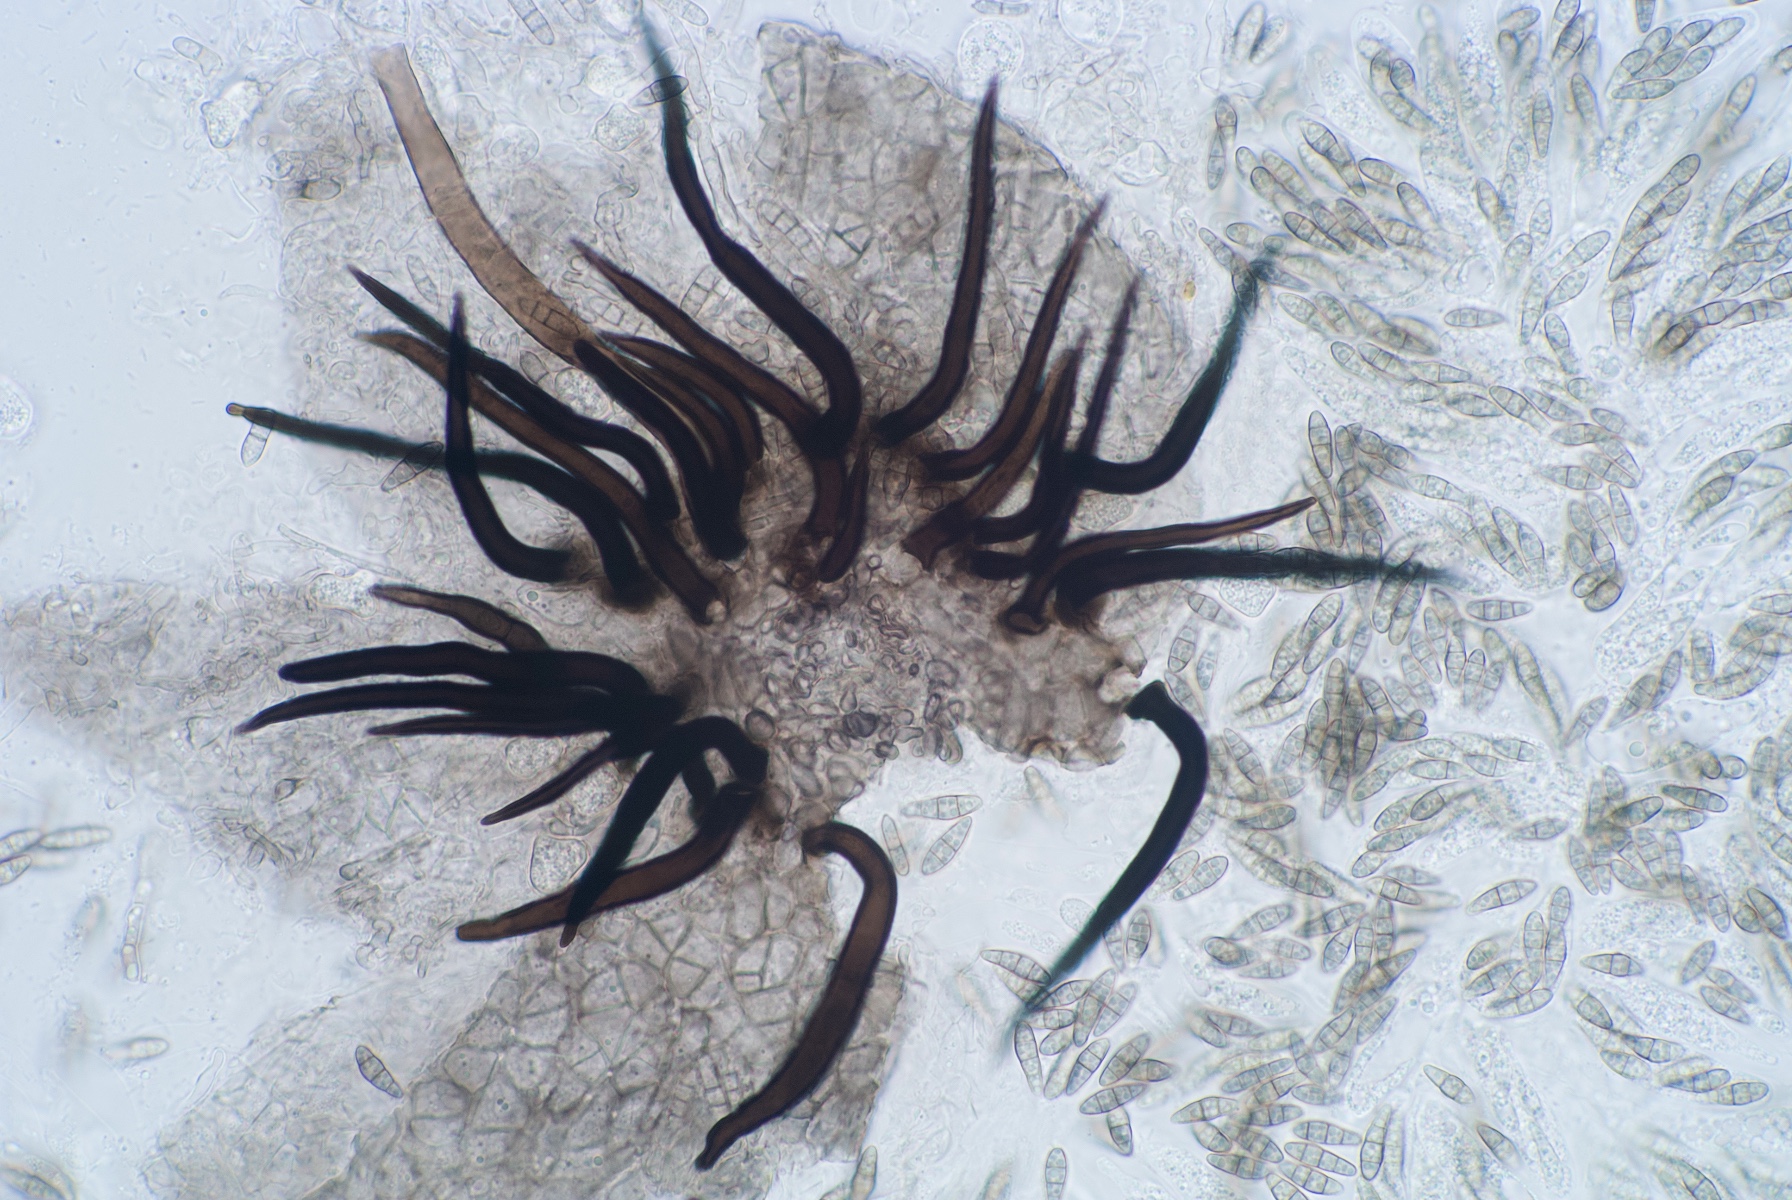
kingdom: Fungi
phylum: Ascomycota
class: Eurotiomycetes
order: Chaetothyriales
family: Herpotrichiellaceae
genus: Capronia
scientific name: Capronia
